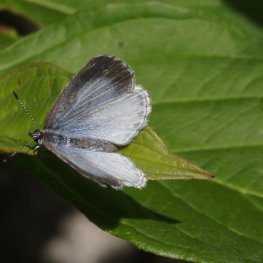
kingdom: Animalia
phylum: Arthropoda
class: Insecta
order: Lepidoptera
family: Lycaenidae
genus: Cyaniris
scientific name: Cyaniris neglecta
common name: Summer Azure
